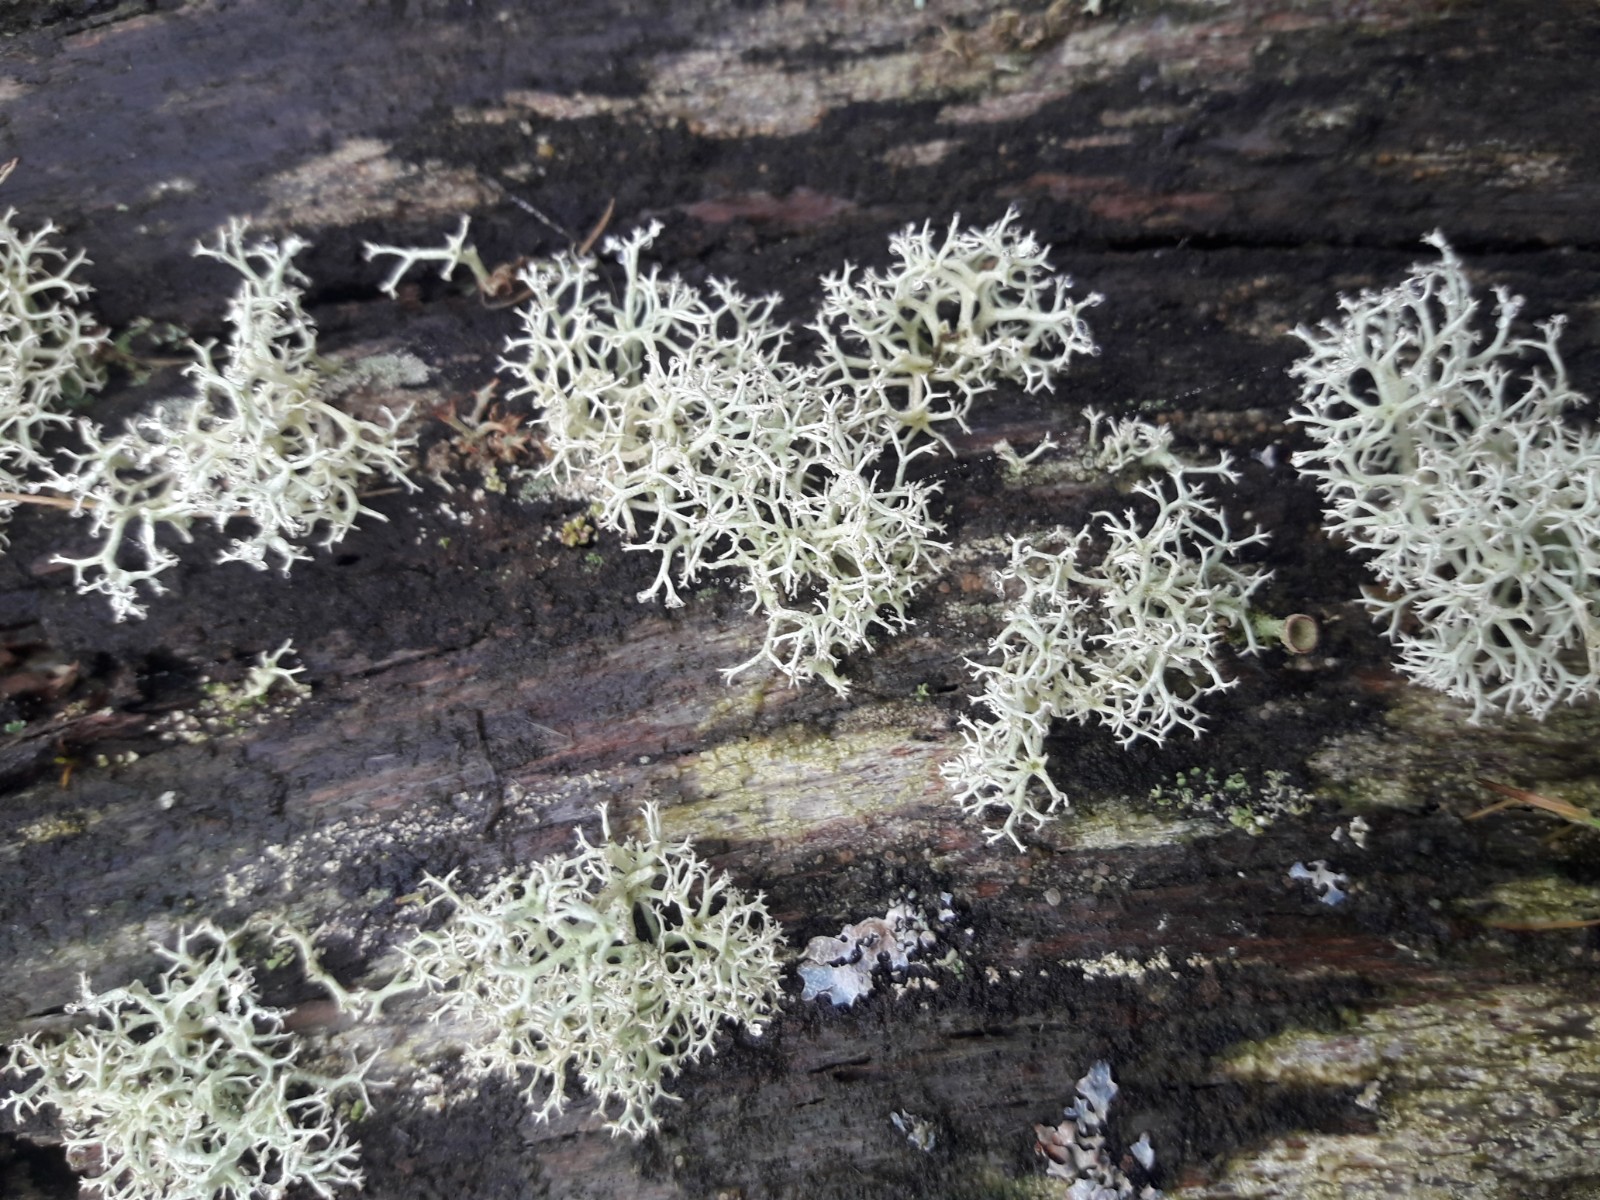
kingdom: Fungi
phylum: Ascomycota
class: Lecanoromycetes
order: Lecanorales
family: Cladoniaceae
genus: Cladonia
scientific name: Cladonia portentosa
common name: hede-rensdyrlav
